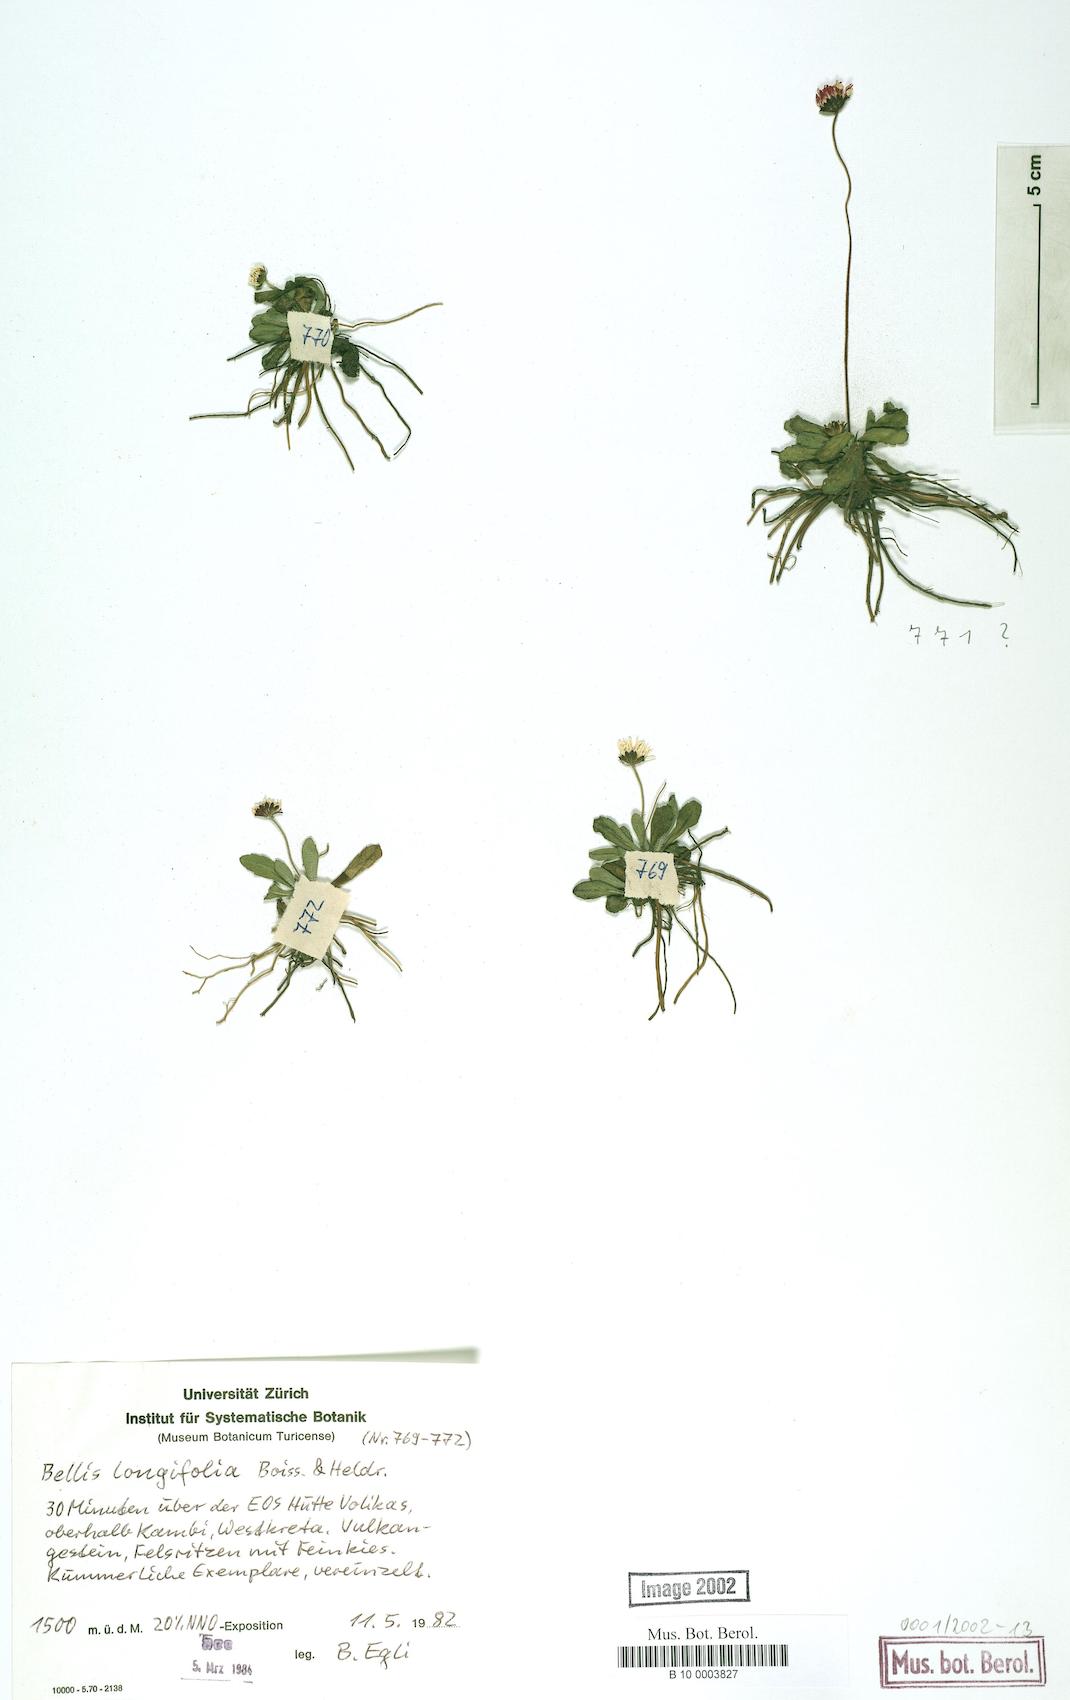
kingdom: Plantae
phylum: Tracheophyta
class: Magnoliopsida
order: Asterales
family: Asteraceae
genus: Bellis
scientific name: Bellis longifolia
